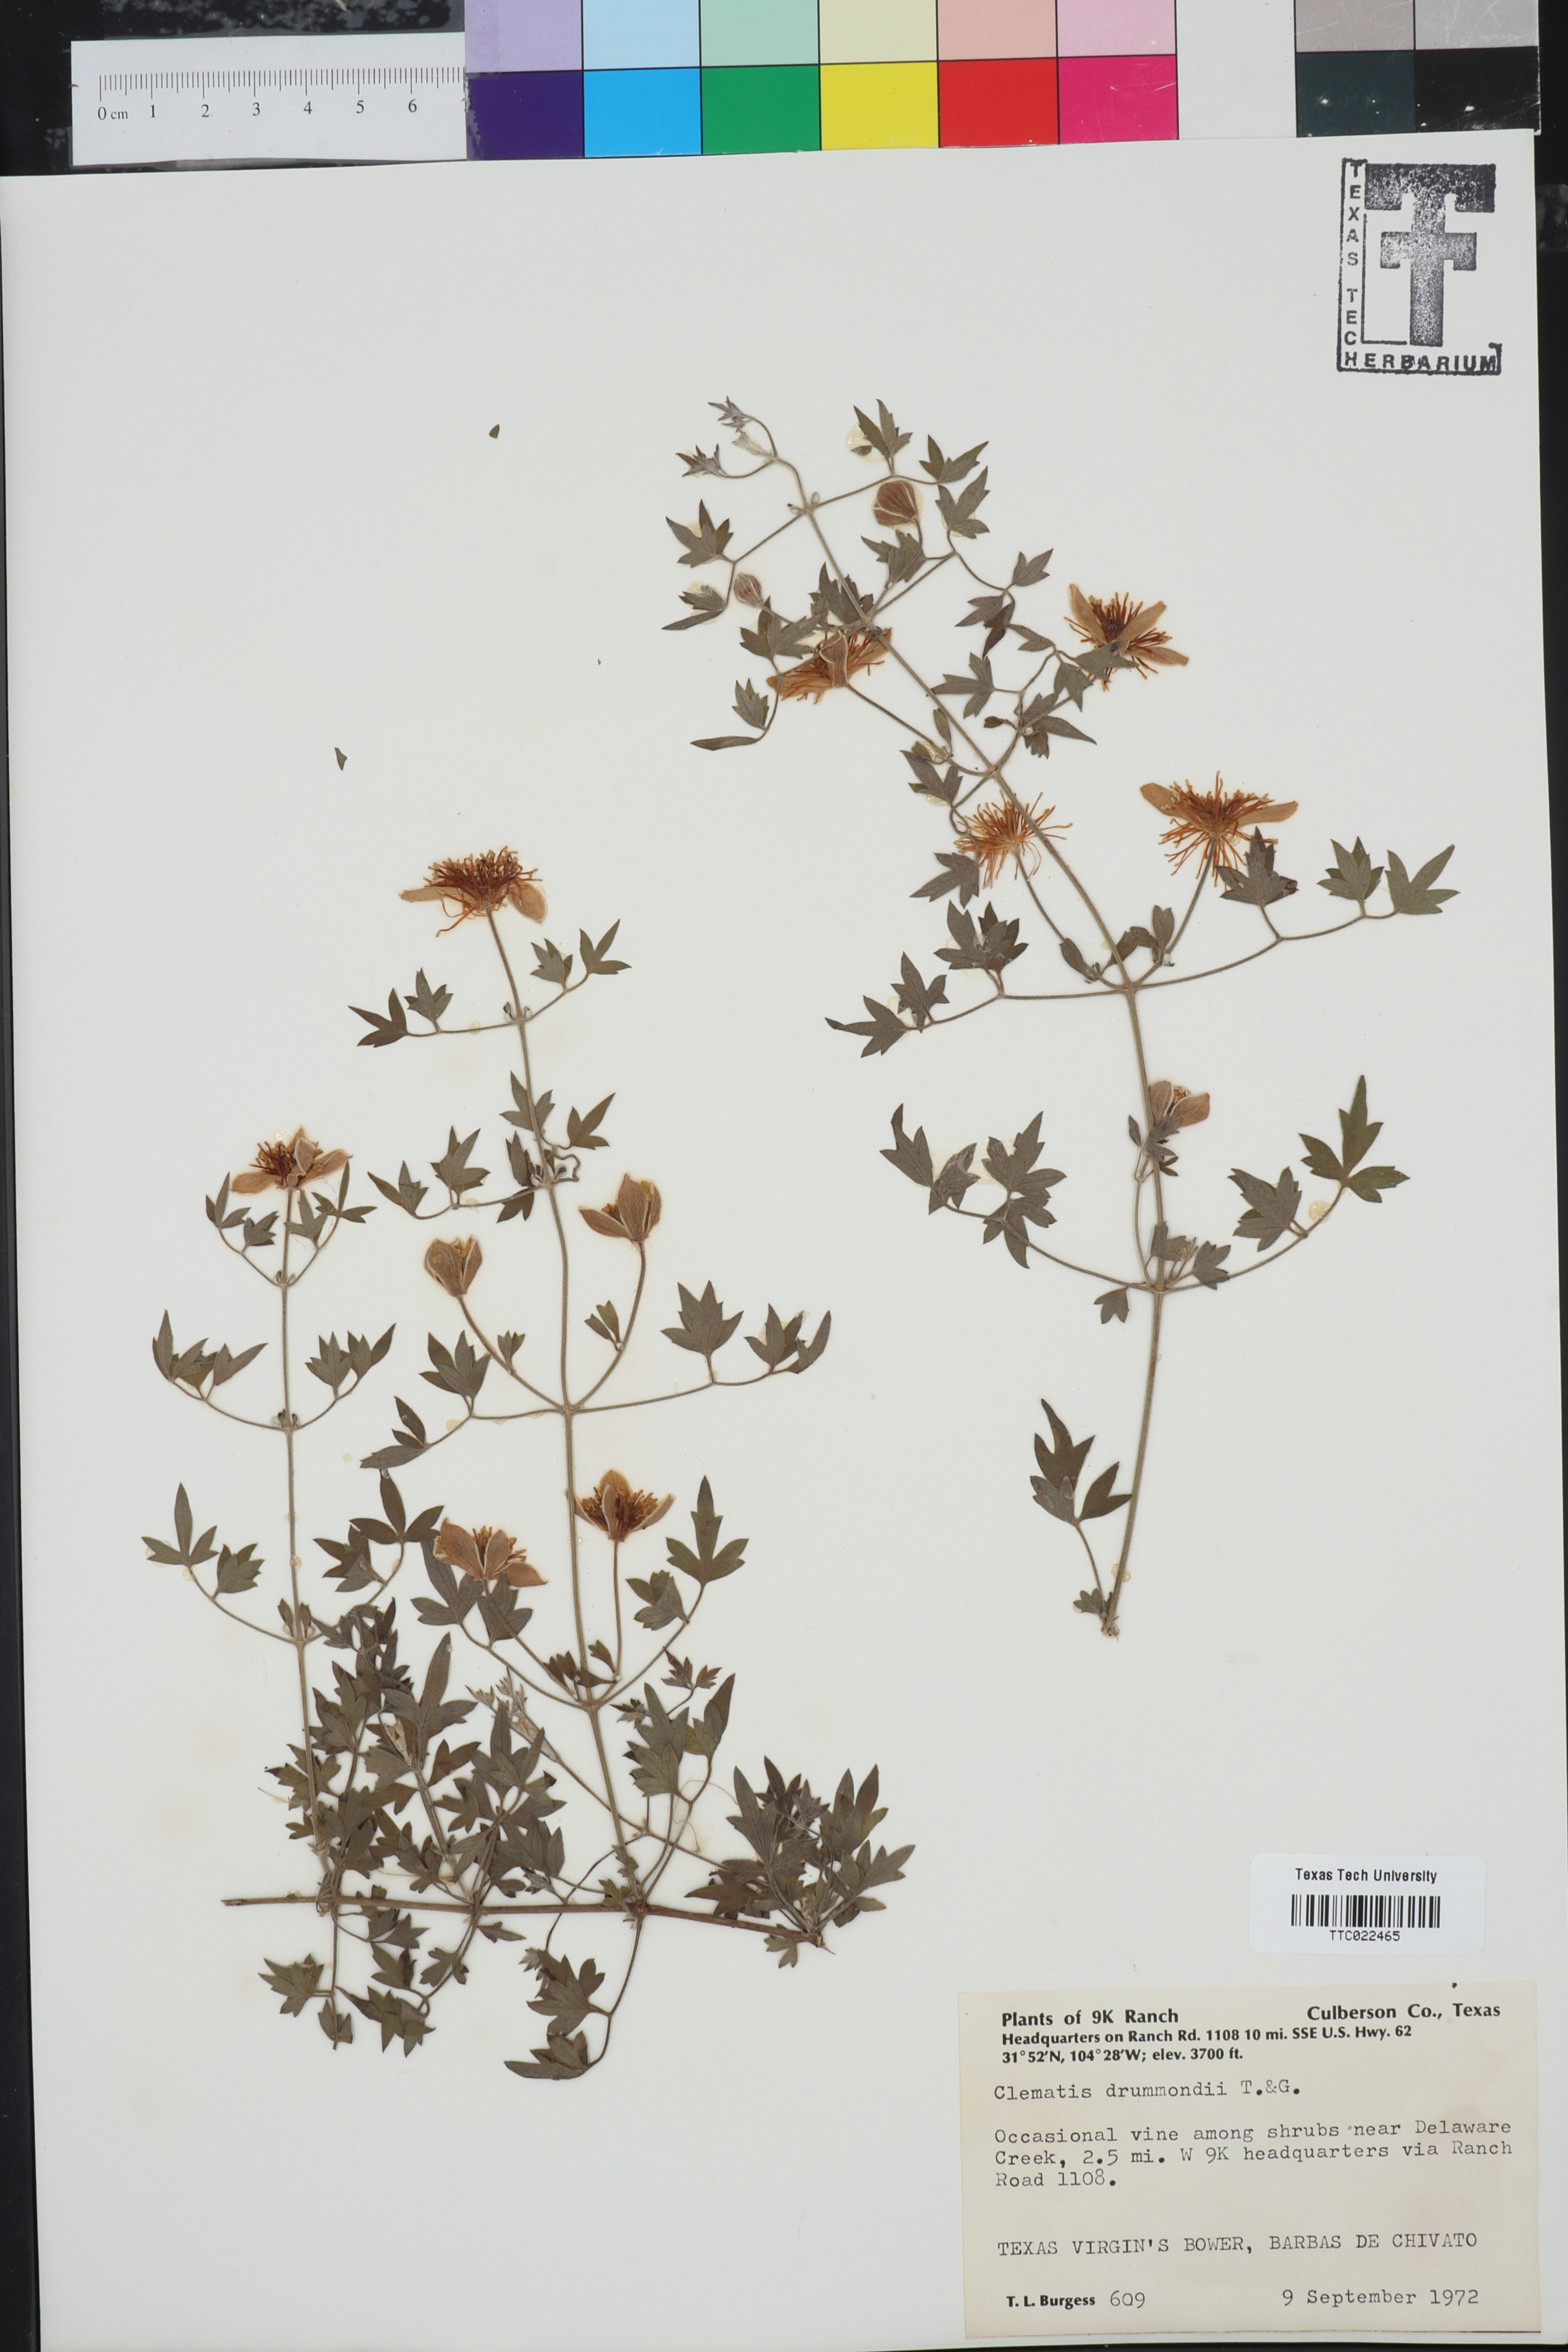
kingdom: Plantae
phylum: Tracheophyta
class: Magnoliopsida
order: Ranunculales
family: Ranunculaceae
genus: Clematis
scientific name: Clematis drummondii
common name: Texas virgin's bower
